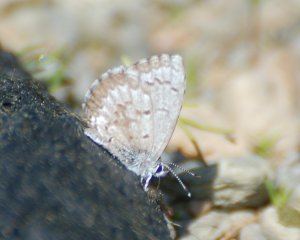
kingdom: Animalia
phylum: Arthropoda
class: Insecta
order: Lepidoptera
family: Lycaenidae
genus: Celastrina
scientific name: Celastrina lucia
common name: Northern Spring Azure
